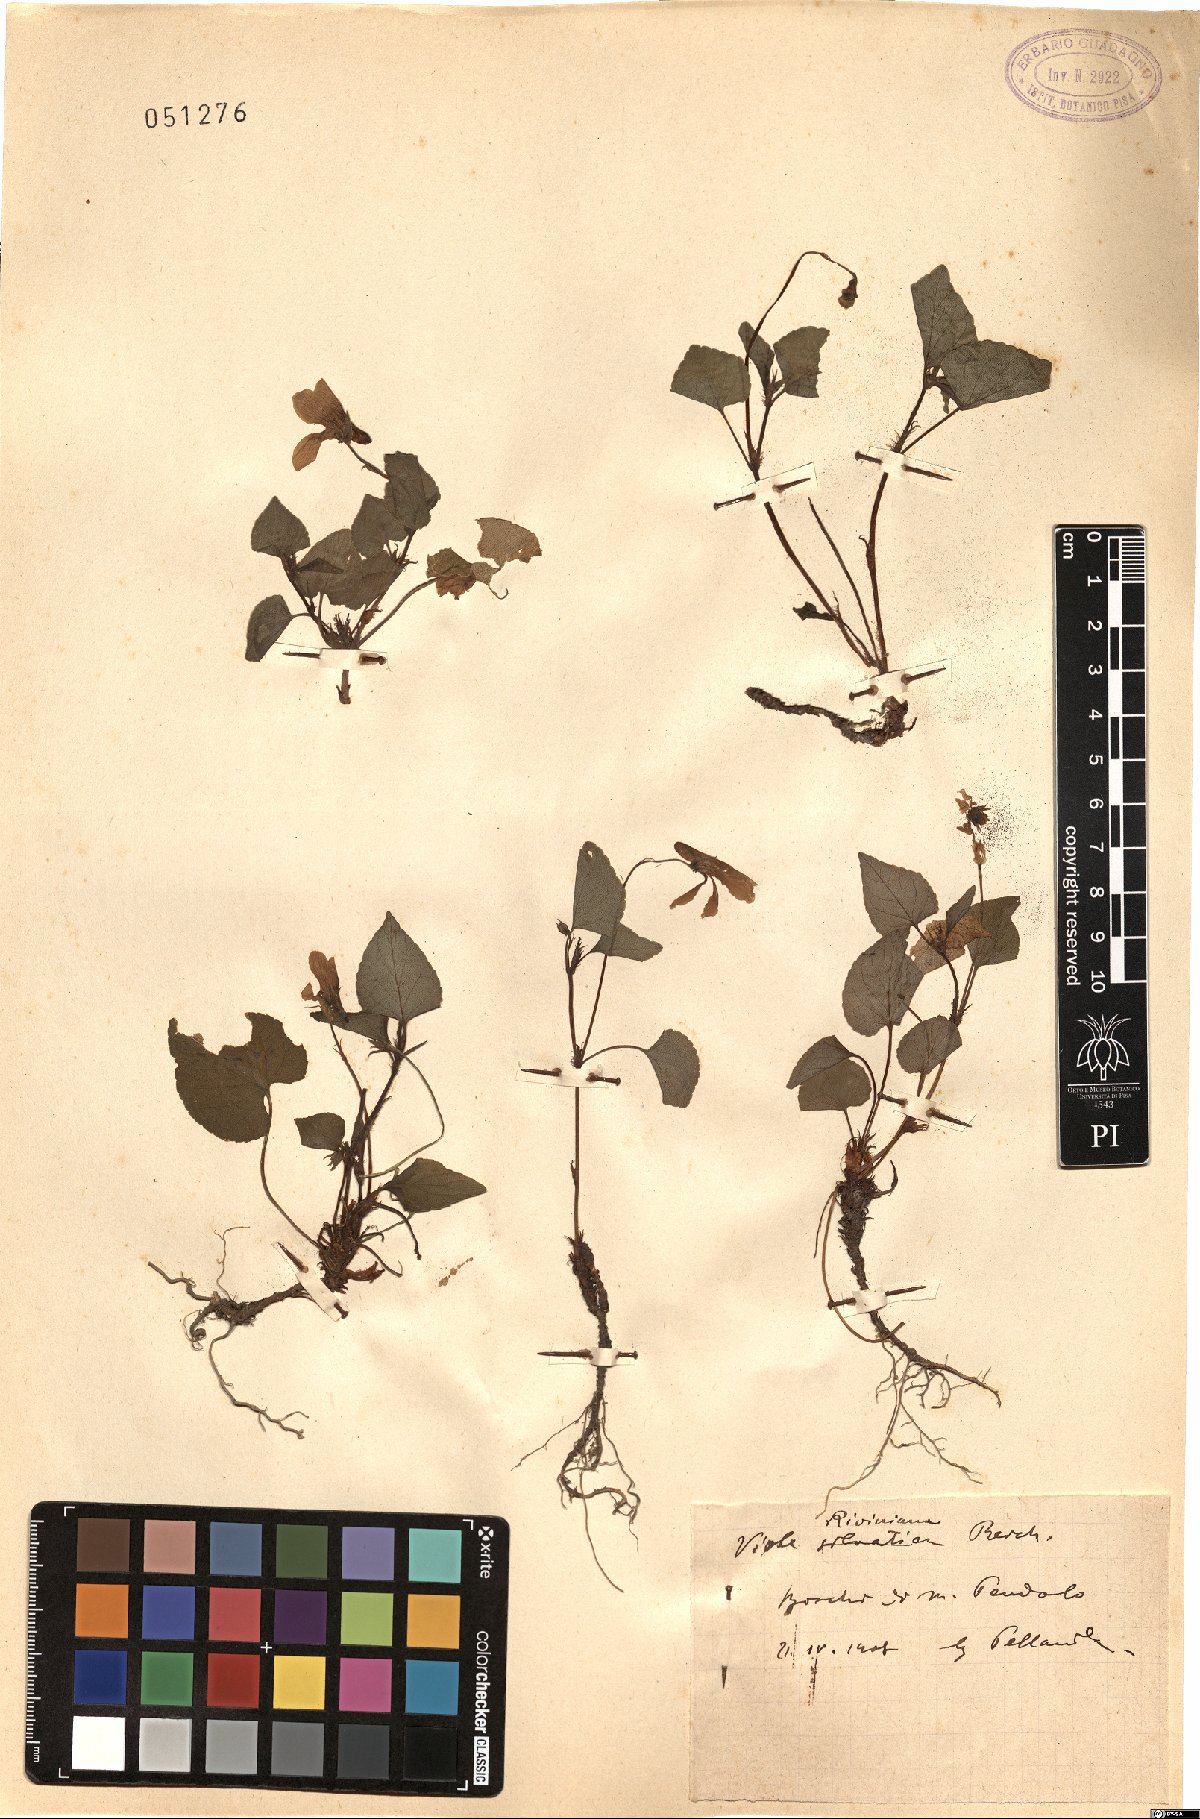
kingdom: Plantae
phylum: Tracheophyta
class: Magnoliopsida
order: Malpighiales
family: Violaceae
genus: Viola
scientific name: Viola riviniana
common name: Common dog-violet
